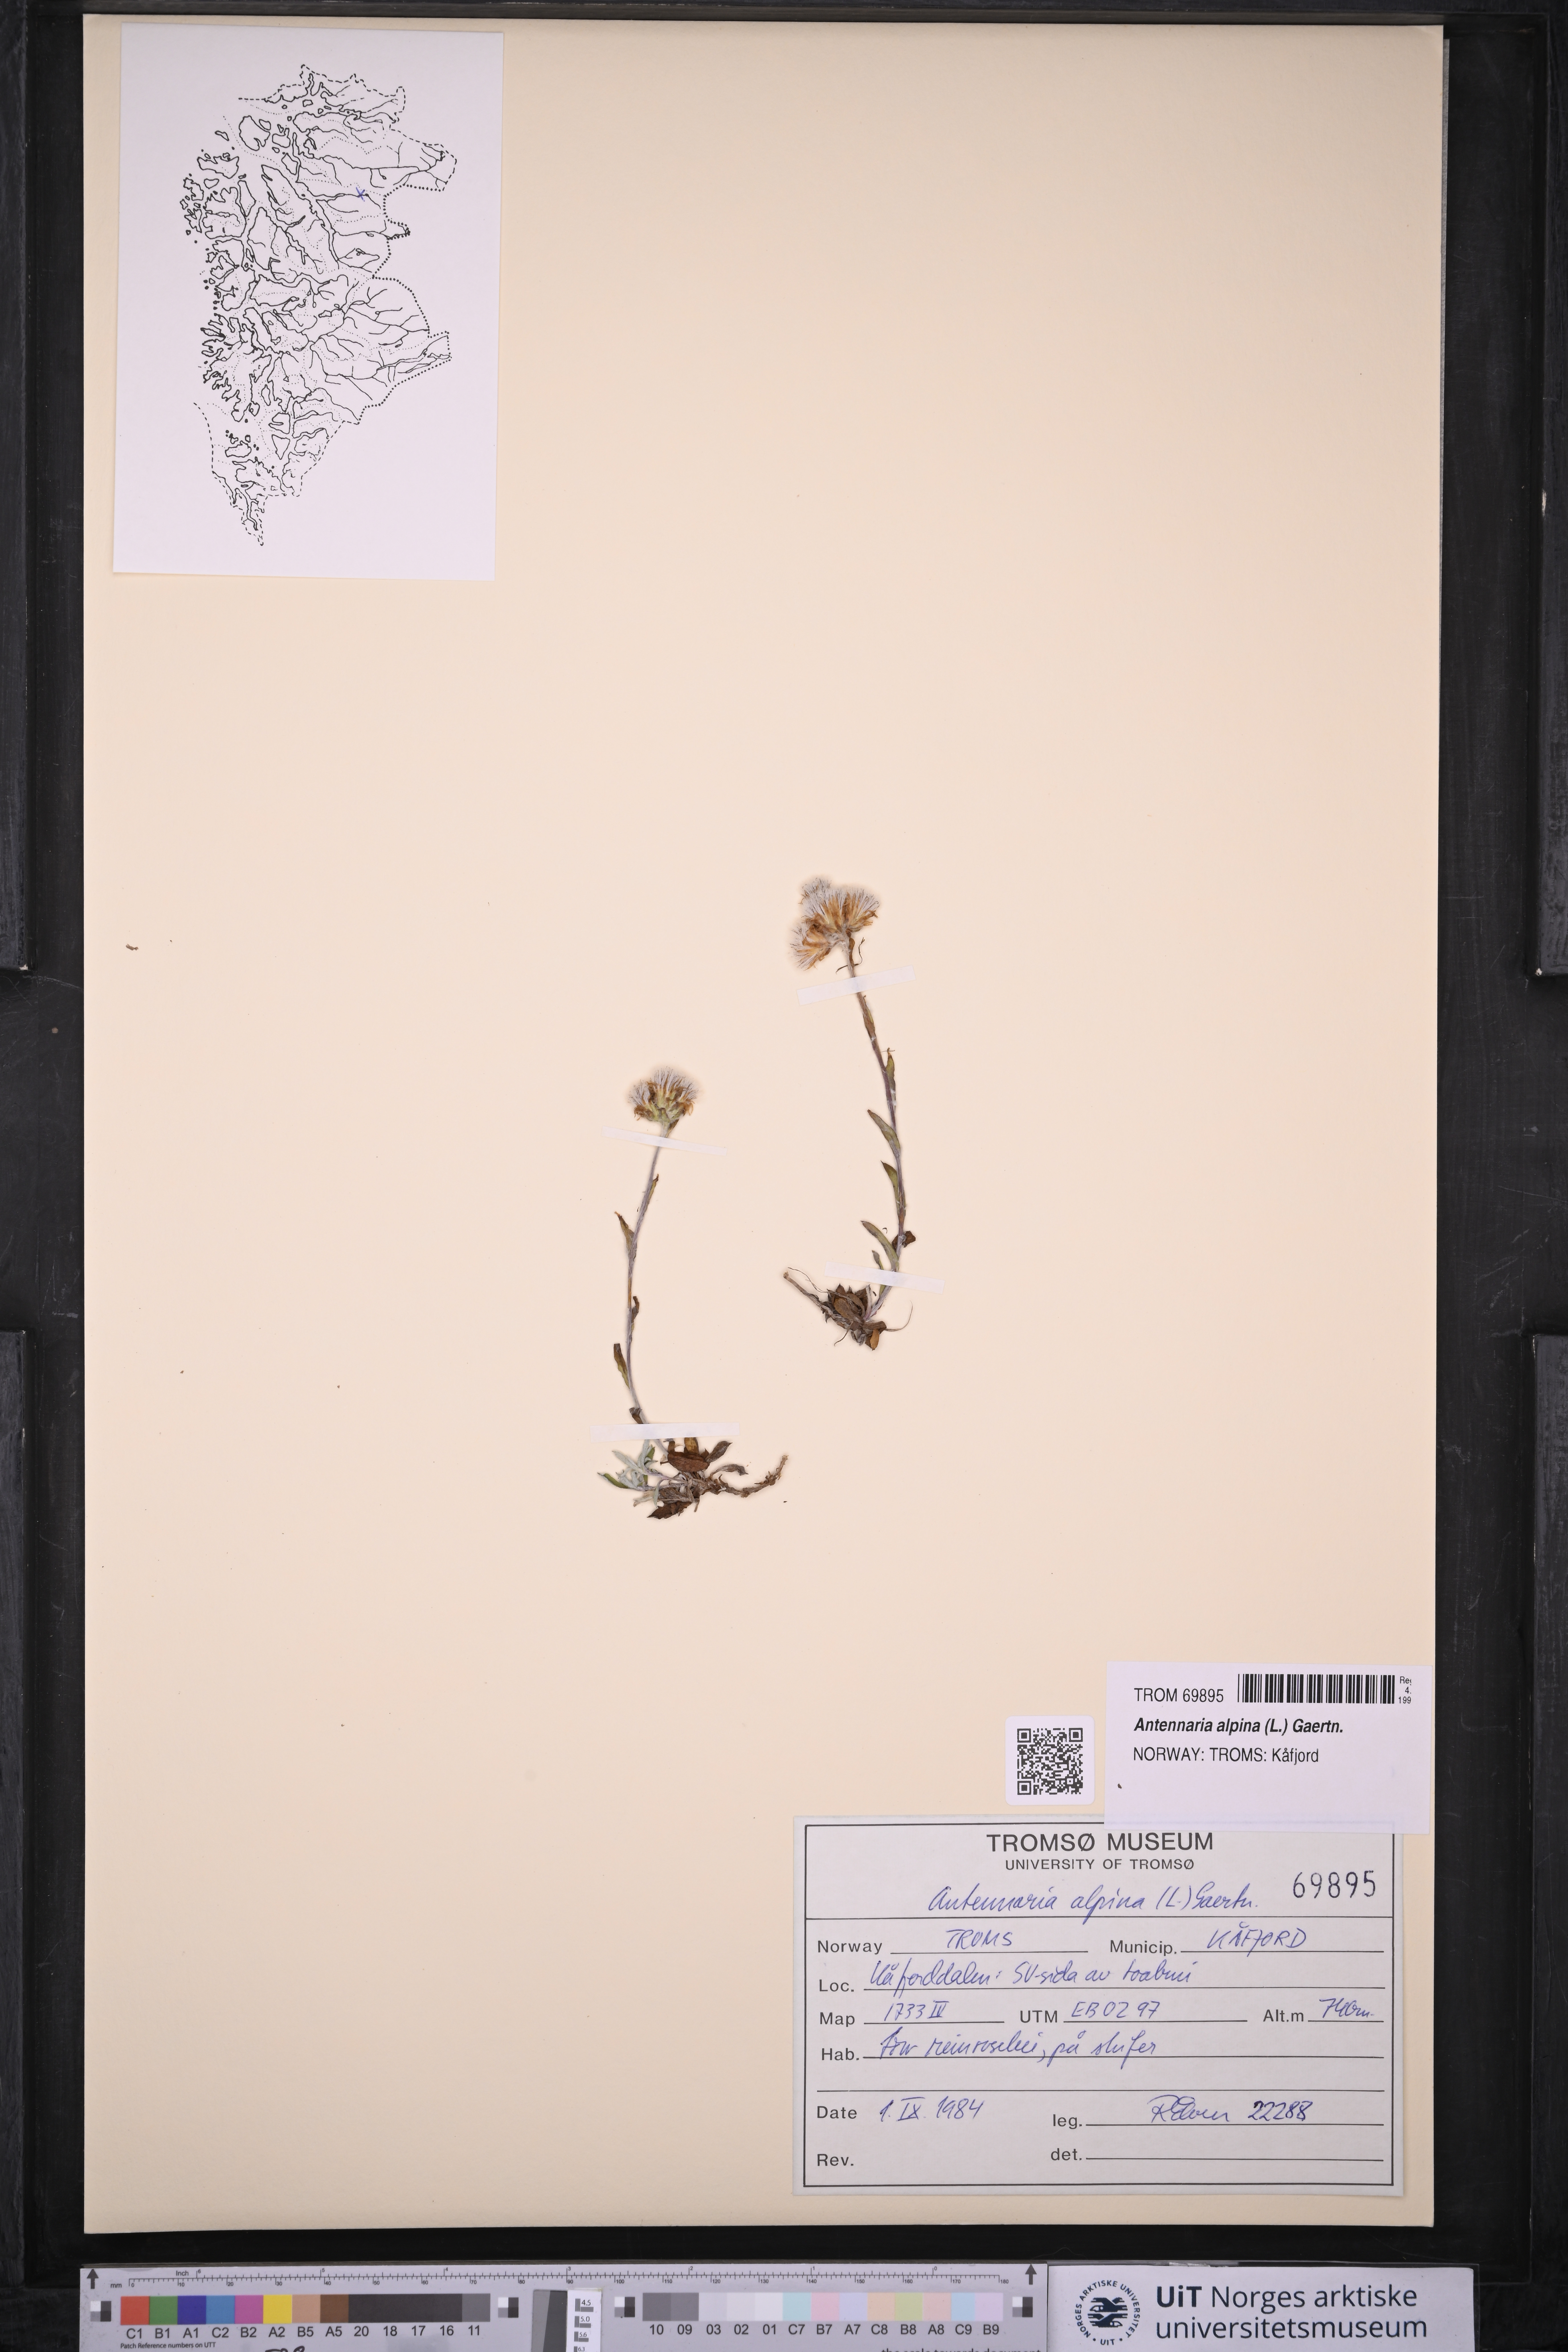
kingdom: Plantae
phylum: Tracheophyta
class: Magnoliopsida
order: Asterales
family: Asteraceae
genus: Antennaria
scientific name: Antennaria alpina
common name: Alpine pussytoes
